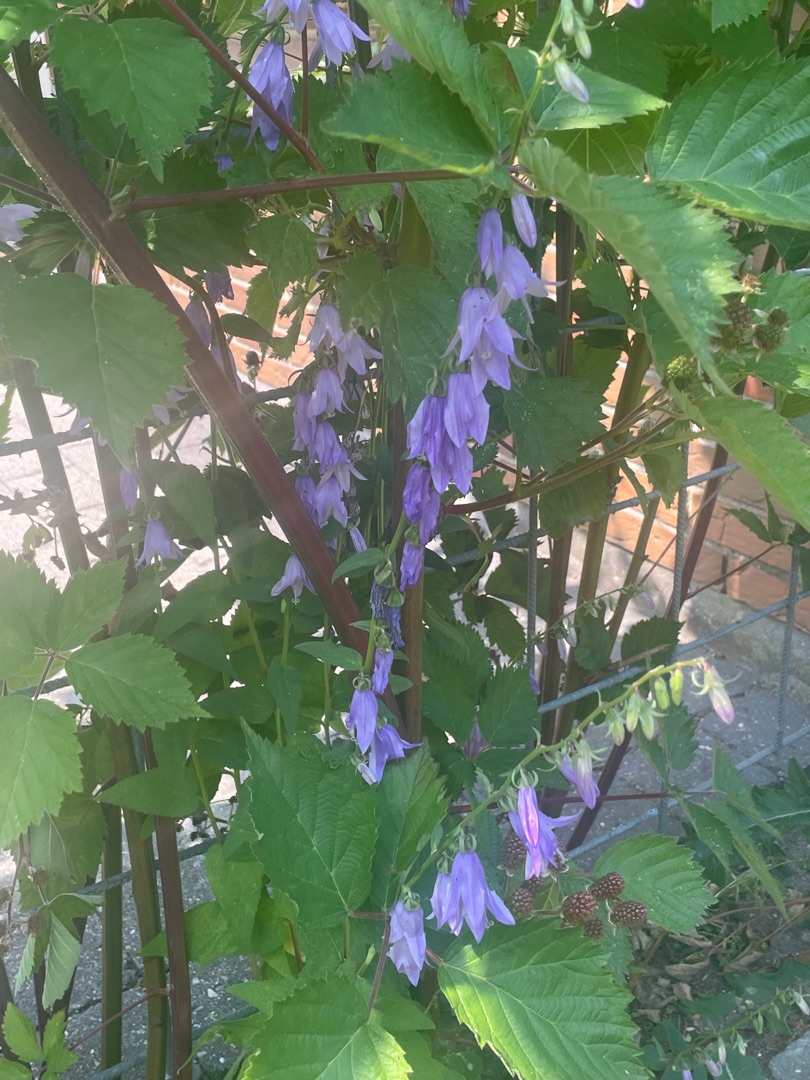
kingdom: Plantae
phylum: Tracheophyta
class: Magnoliopsida
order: Asterales
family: Campanulaceae
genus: Campanula
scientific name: Campanula rapunculoides
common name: Ensidig klokke
